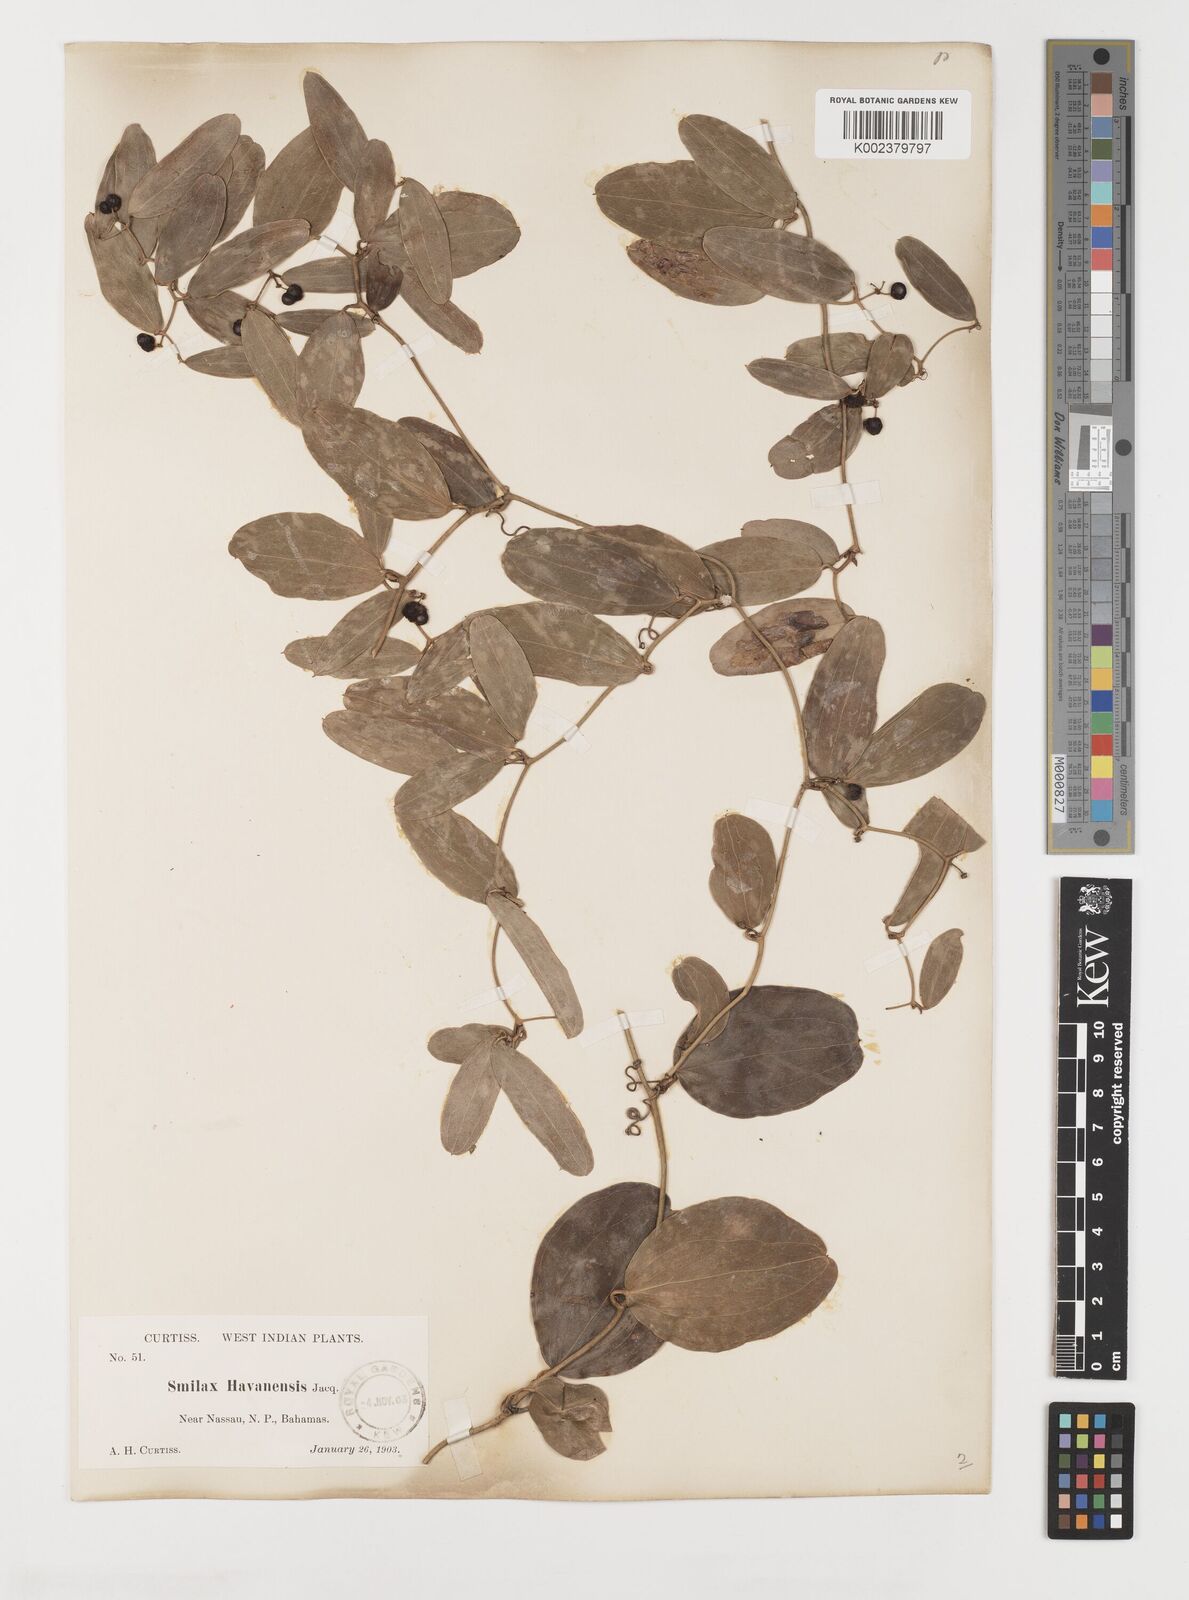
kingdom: Plantae
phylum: Tracheophyta
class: Liliopsida
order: Liliales
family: Smilacaceae
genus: Smilax
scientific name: Smilax havanensis
